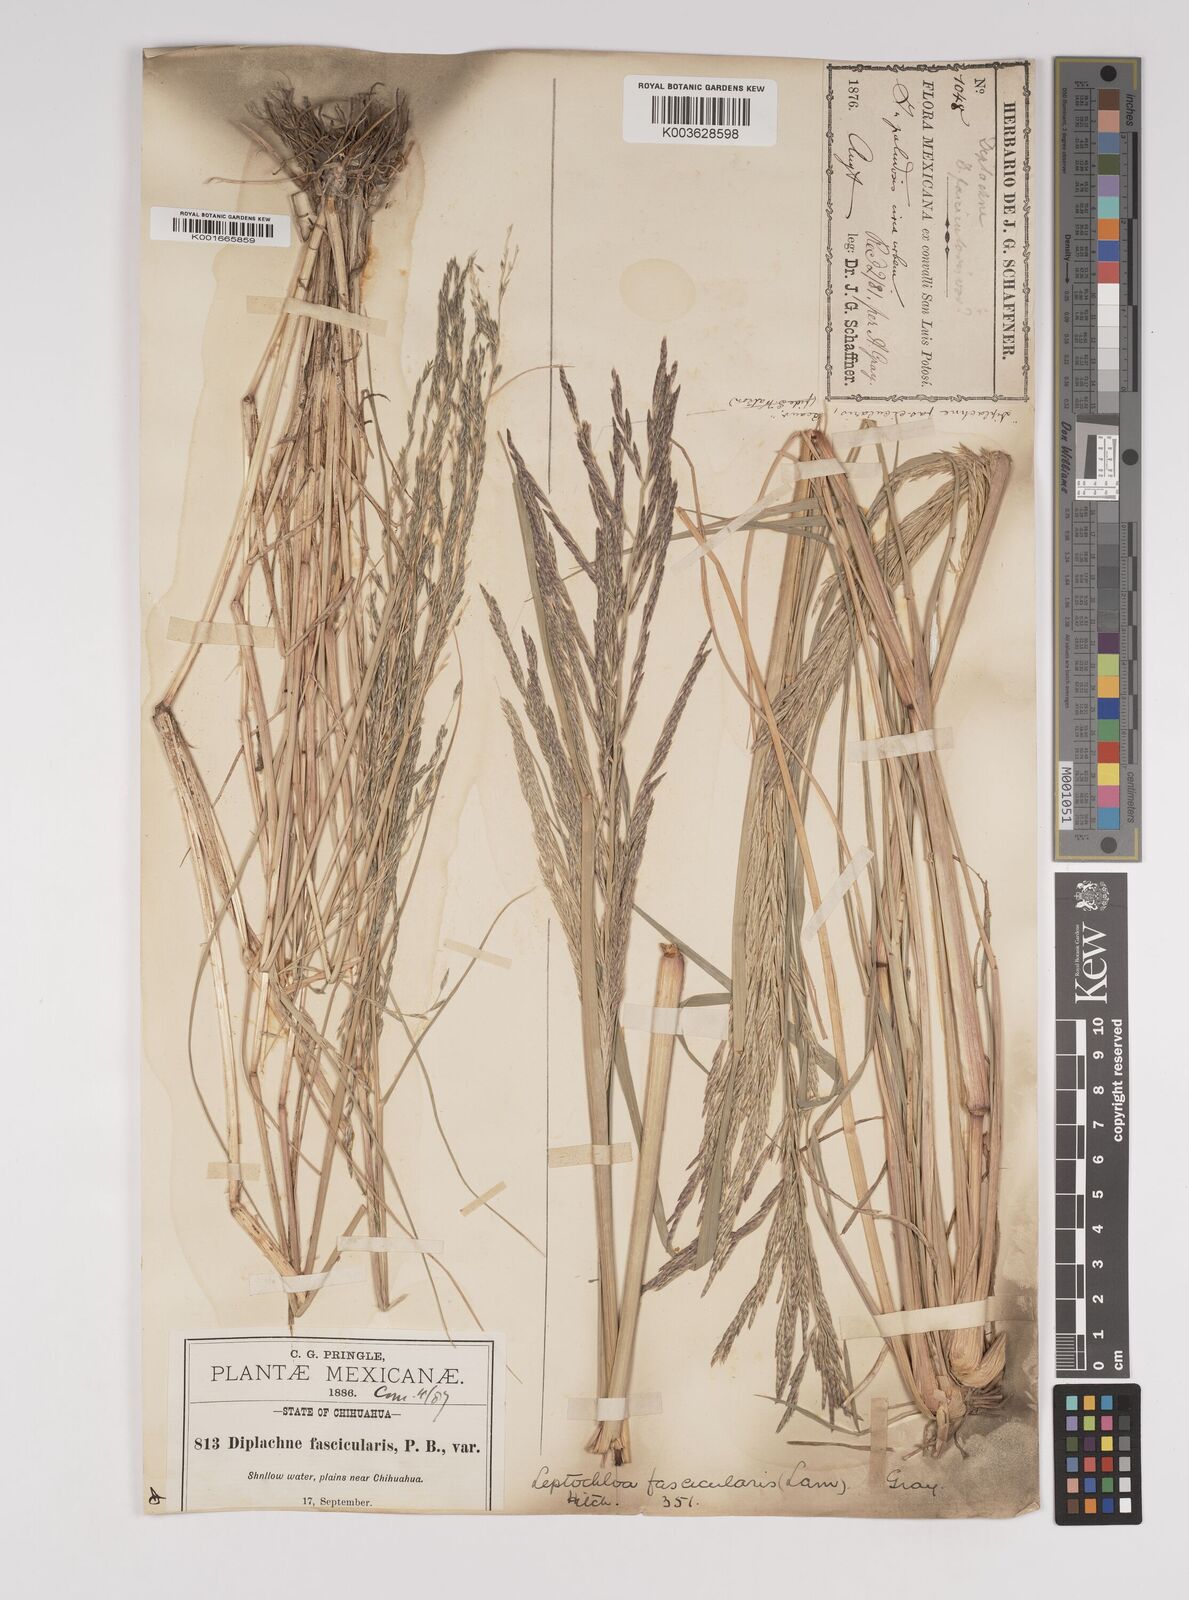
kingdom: Plantae
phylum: Tracheophyta
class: Liliopsida
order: Poales
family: Poaceae
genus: Diplachne
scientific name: Diplachne fusca
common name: Brown beetle grass
